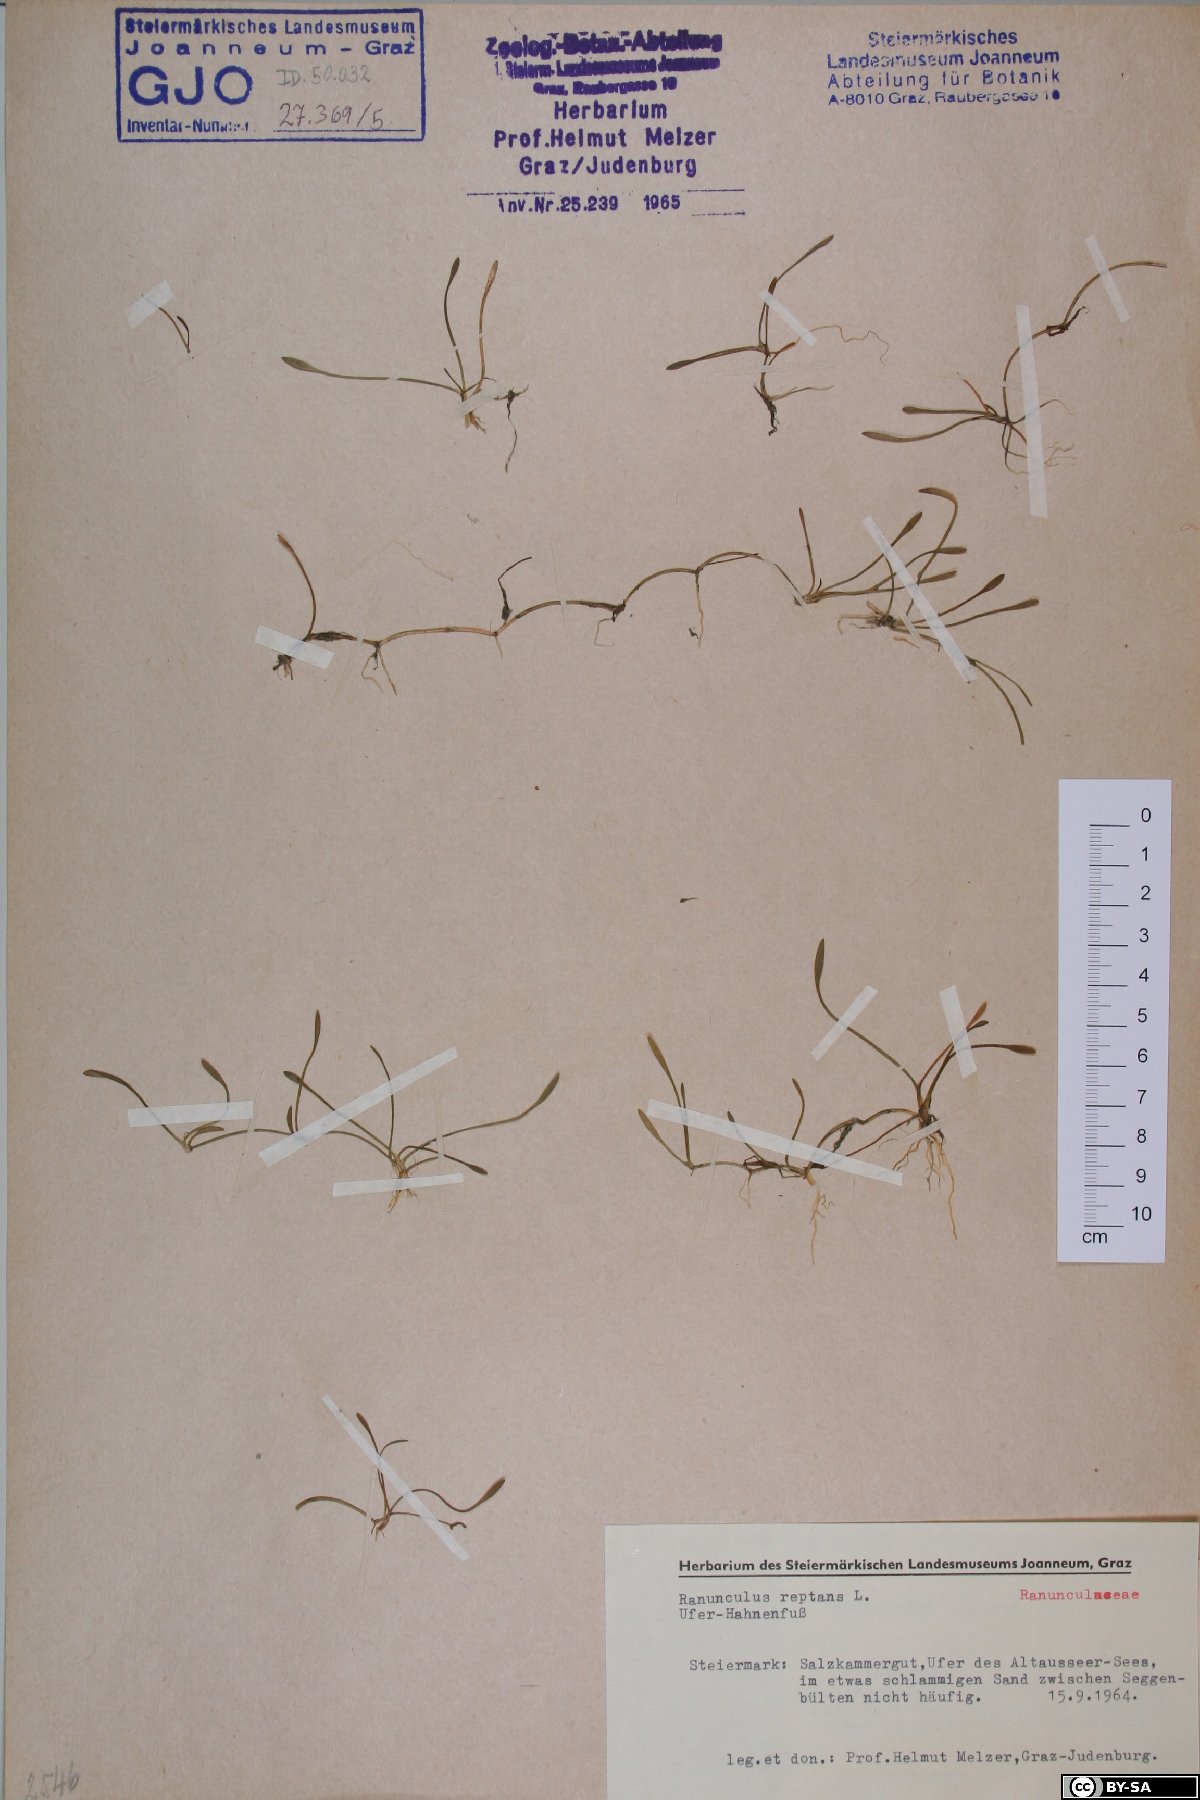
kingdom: Plantae
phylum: Tracheophyta
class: Magnoliopsida
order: Ranunculales
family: Ranunculaceae
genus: Ranunculus
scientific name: Ranunculus reptans
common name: Creeping spearwort
